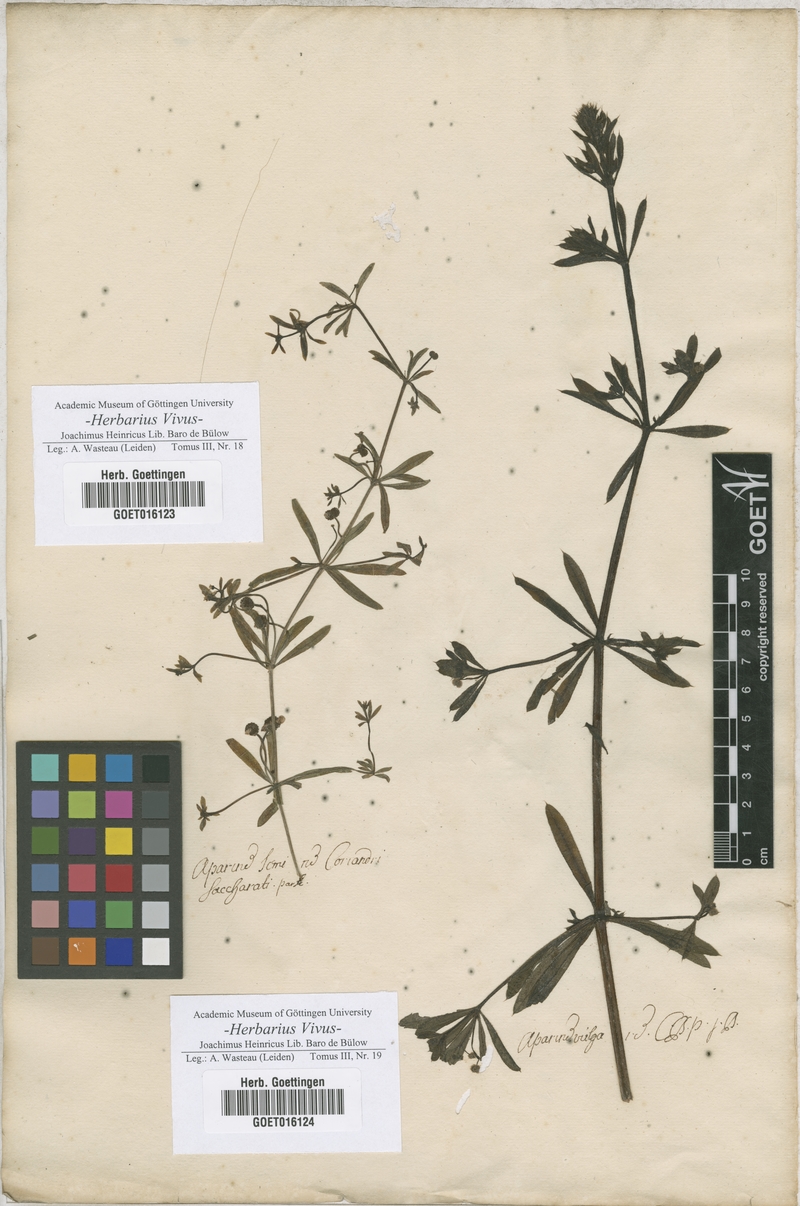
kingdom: Plantae
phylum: Tracheophyta
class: Magnoliopsida
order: Gentianales
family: Rubiaceae
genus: Aparine
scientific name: Aparine
